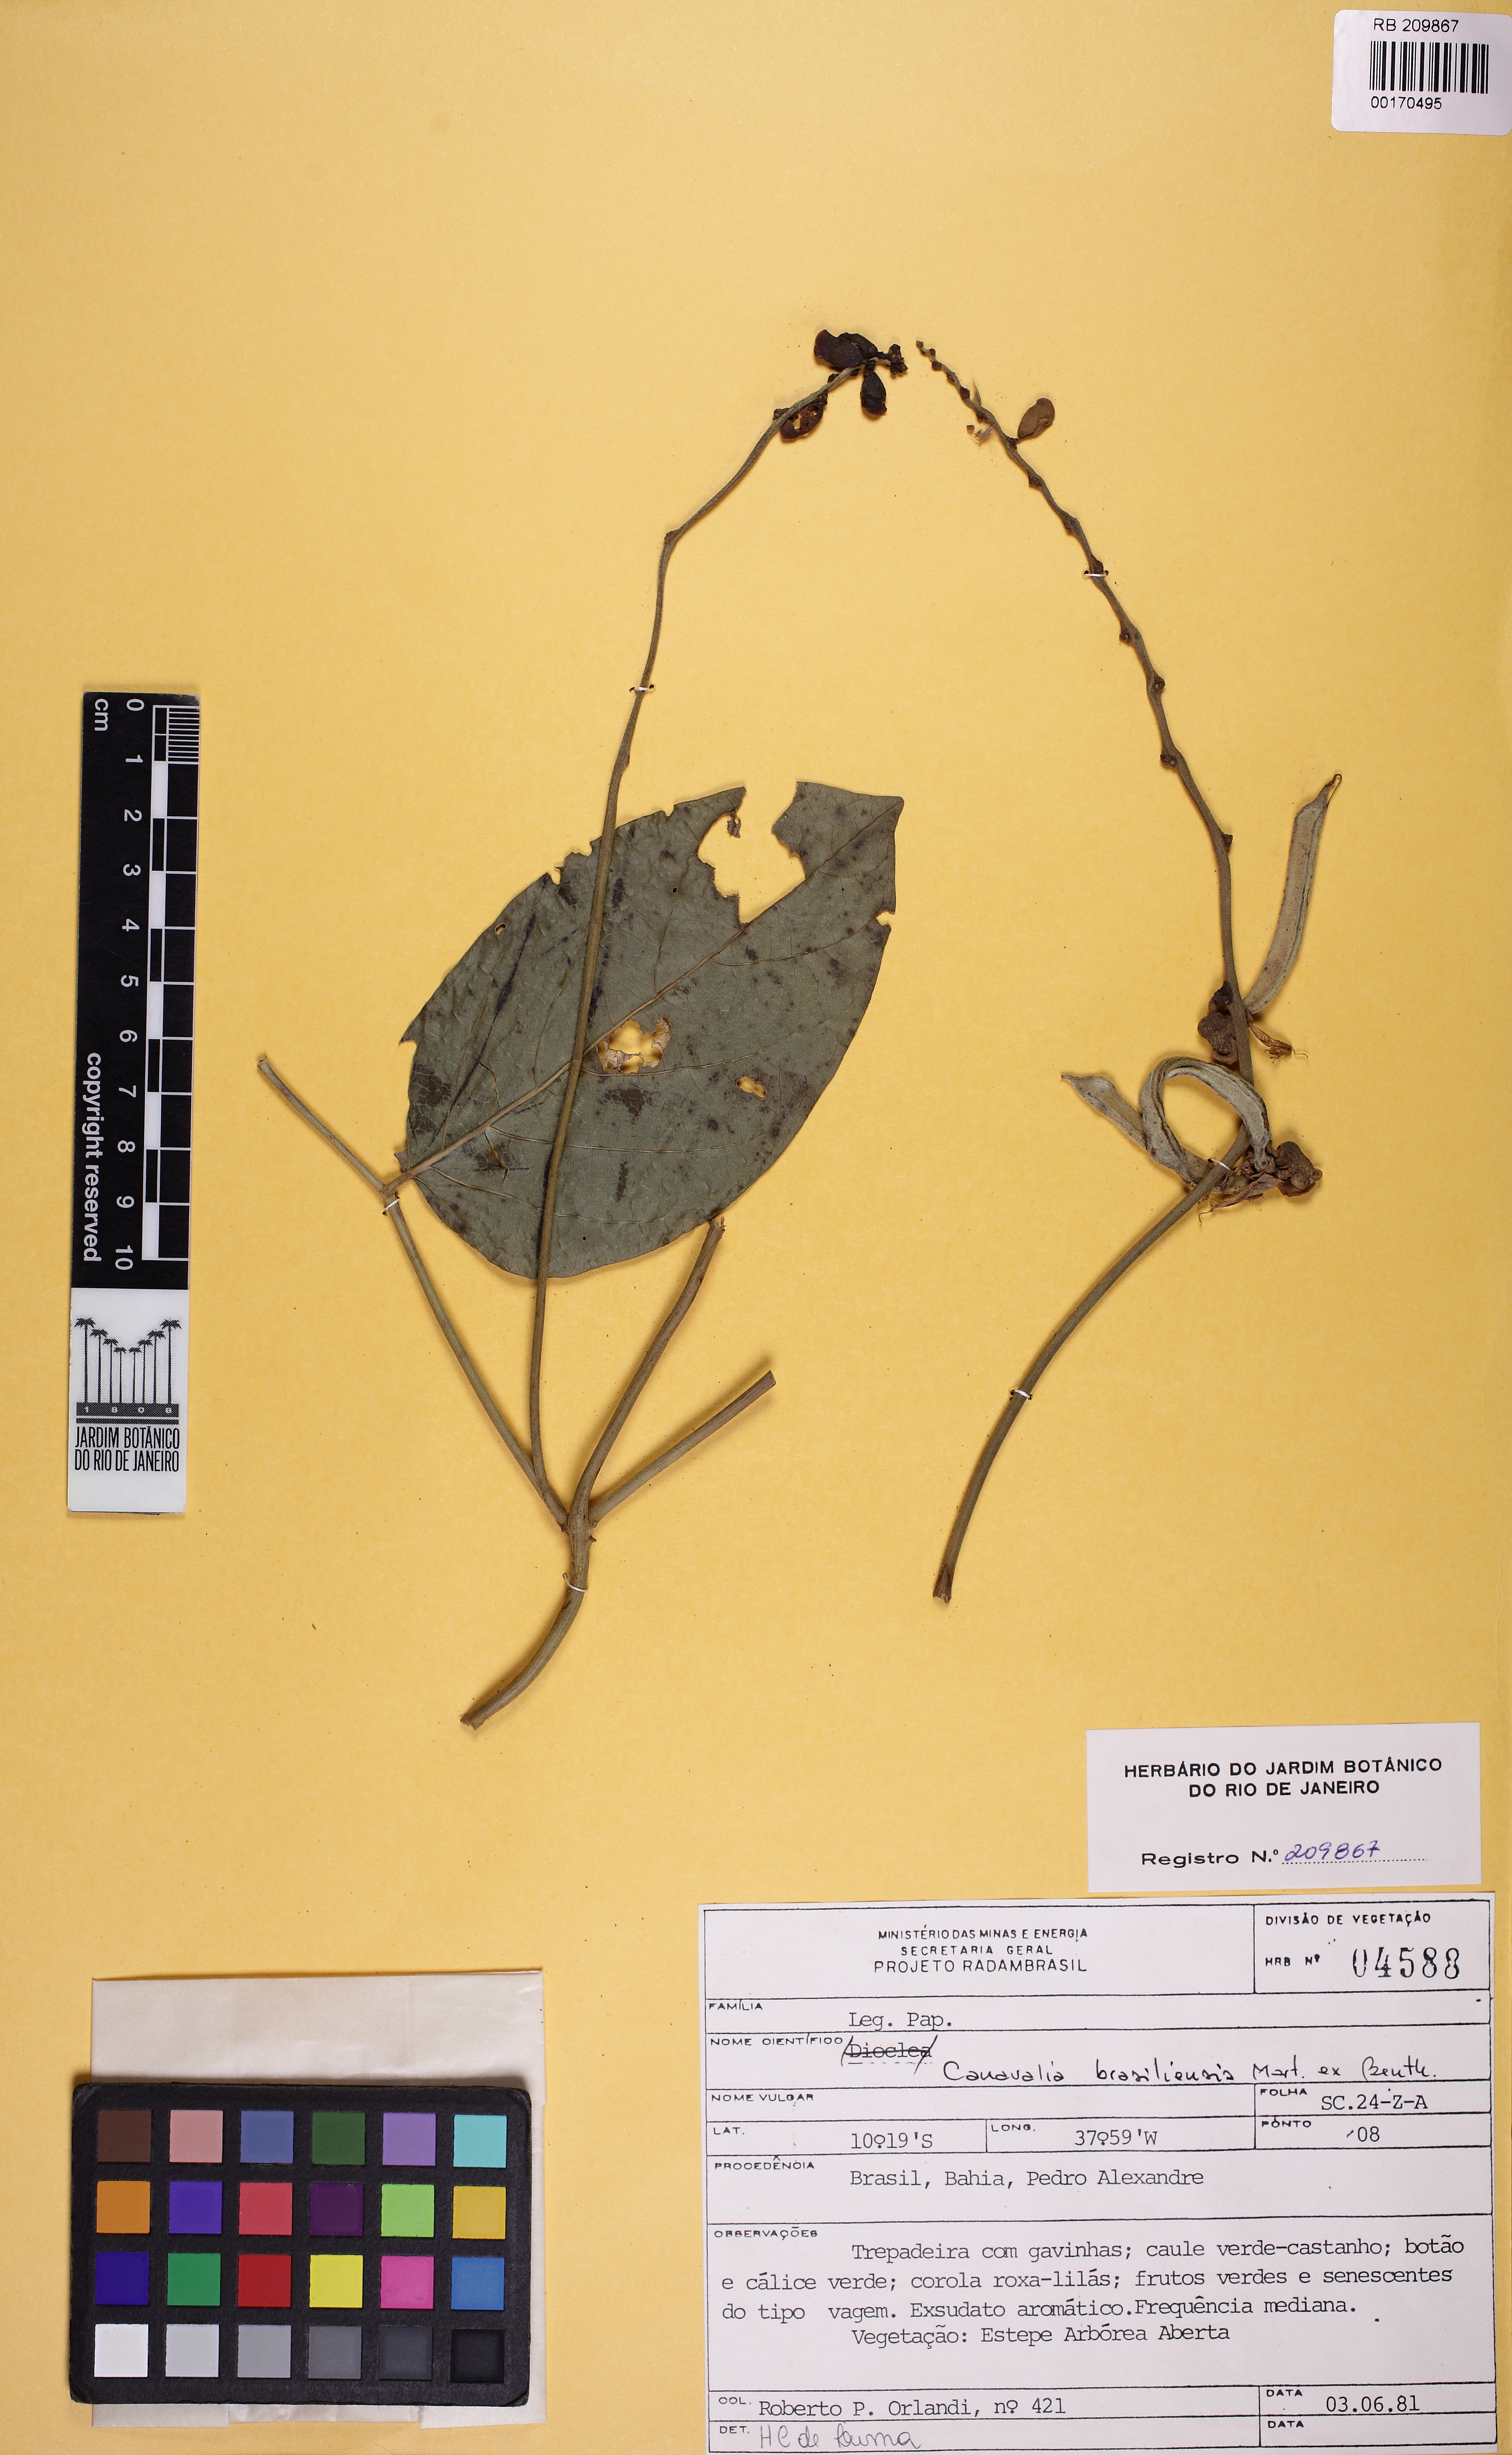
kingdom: Plantae
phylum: Tracheophyta
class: Magnoliopsida
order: Fabales
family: Fabaceae
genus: Canavalia
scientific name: Canavalia brasiliensis
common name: Barbicou-bean
